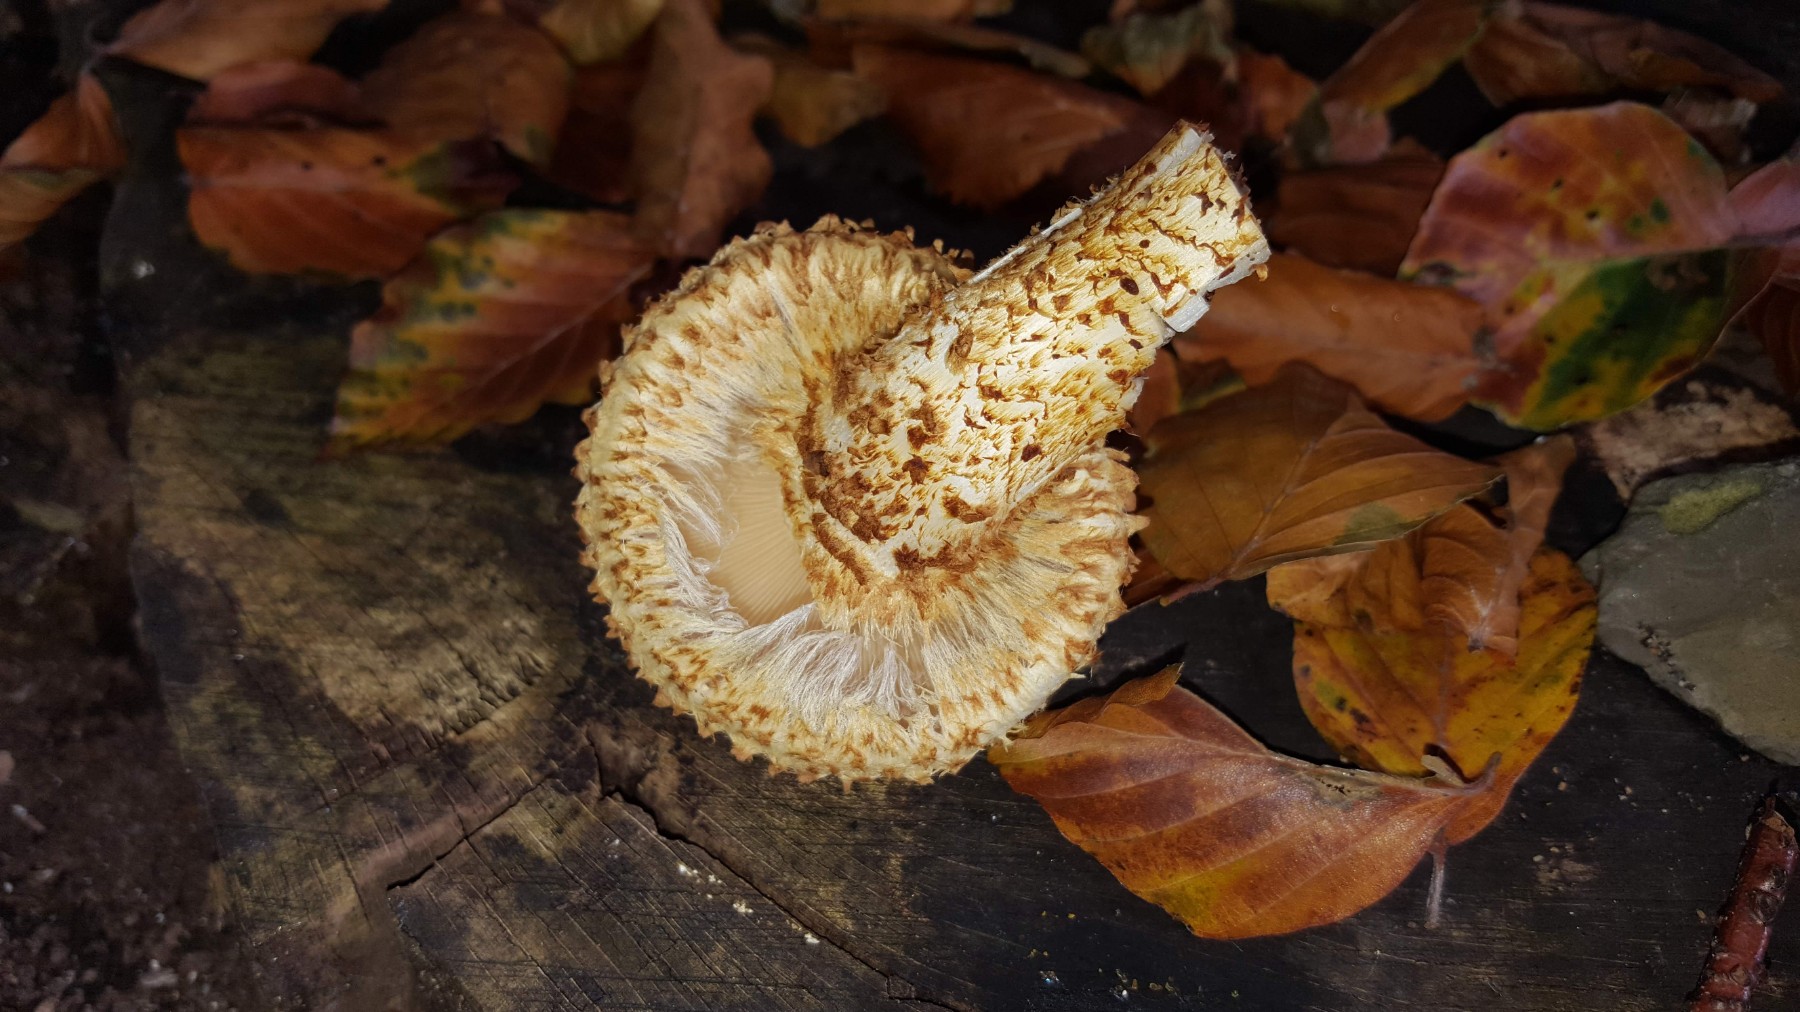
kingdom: Fungi
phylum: Basidiomycota
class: Agaricomycetes
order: Agaricales
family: Strophariaceae
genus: Pholiota
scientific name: Pholiota squarrosa
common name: krumskællet skælhat
